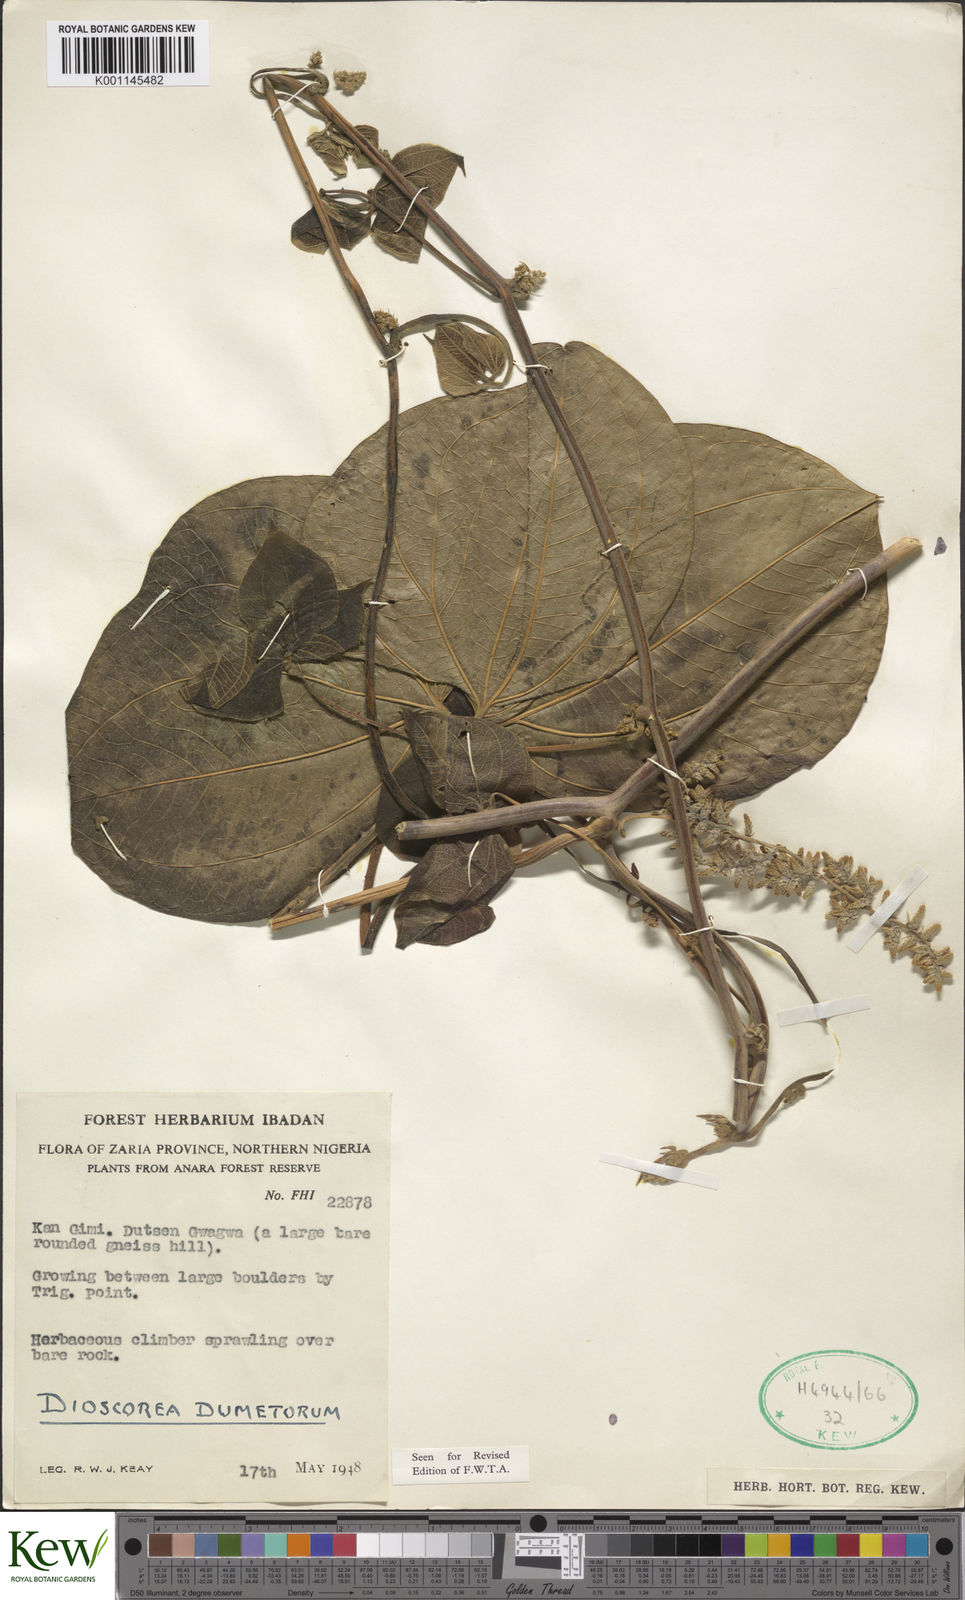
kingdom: Plantae
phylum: Tracheophyta
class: Liliopsida
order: Dioscoreales
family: Dioscoreaceae
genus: Dioscorea
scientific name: Dioscorea dumetorum
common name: African bitter yam
